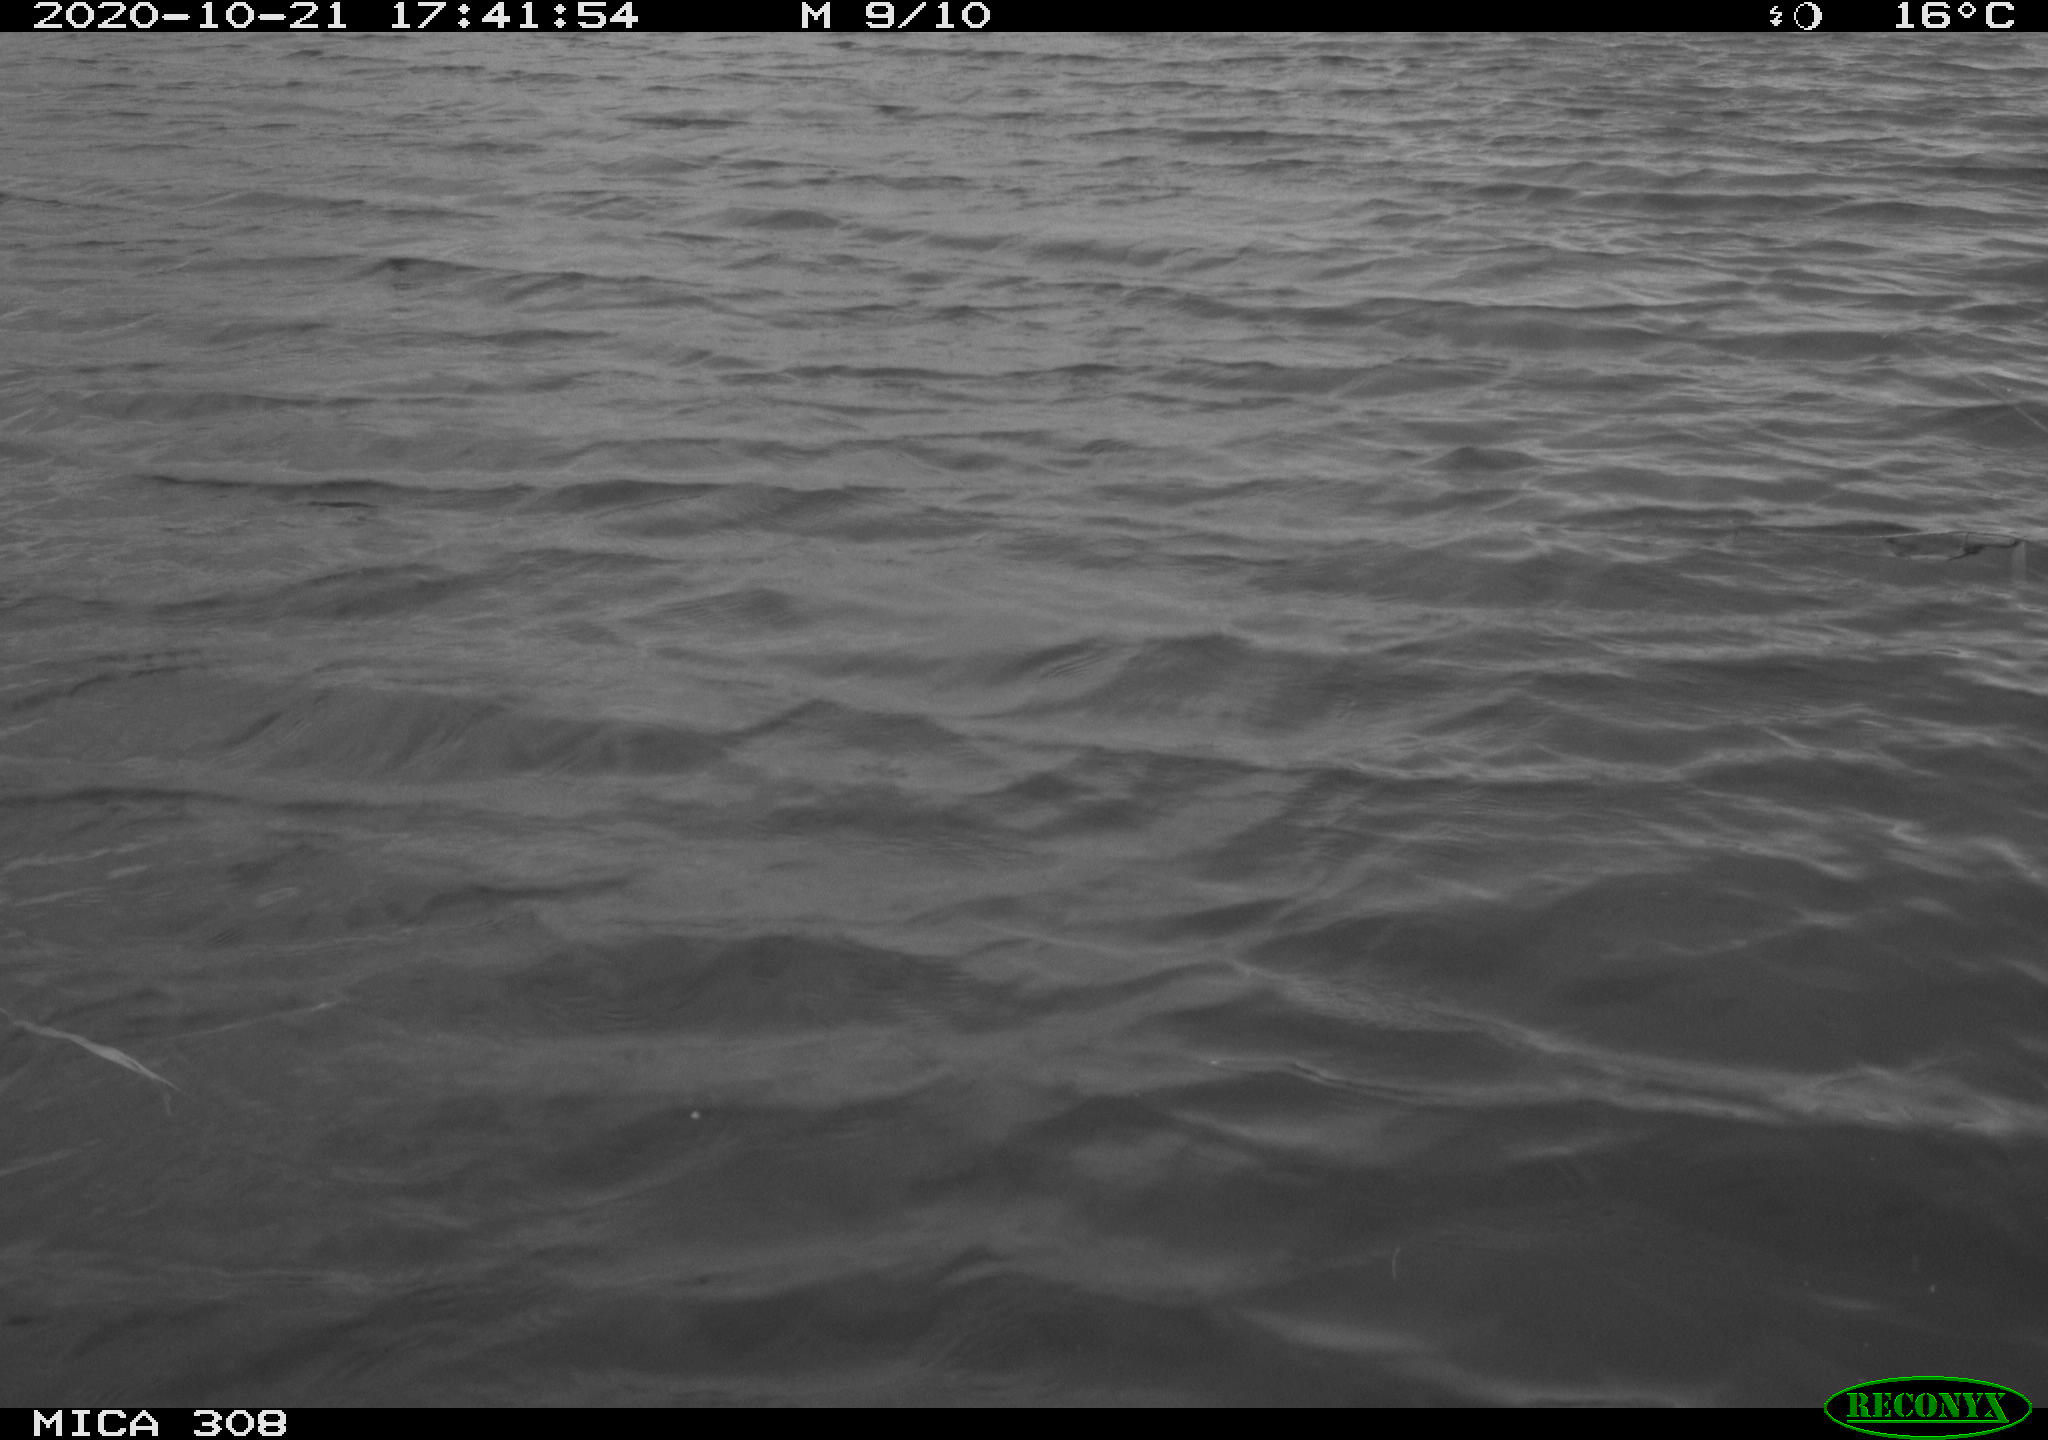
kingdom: Animalia
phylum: Chordata
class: Aves
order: Anseriformes
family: Anatidae
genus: Anas
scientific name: Anas platyrhynchos
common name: Mallard
